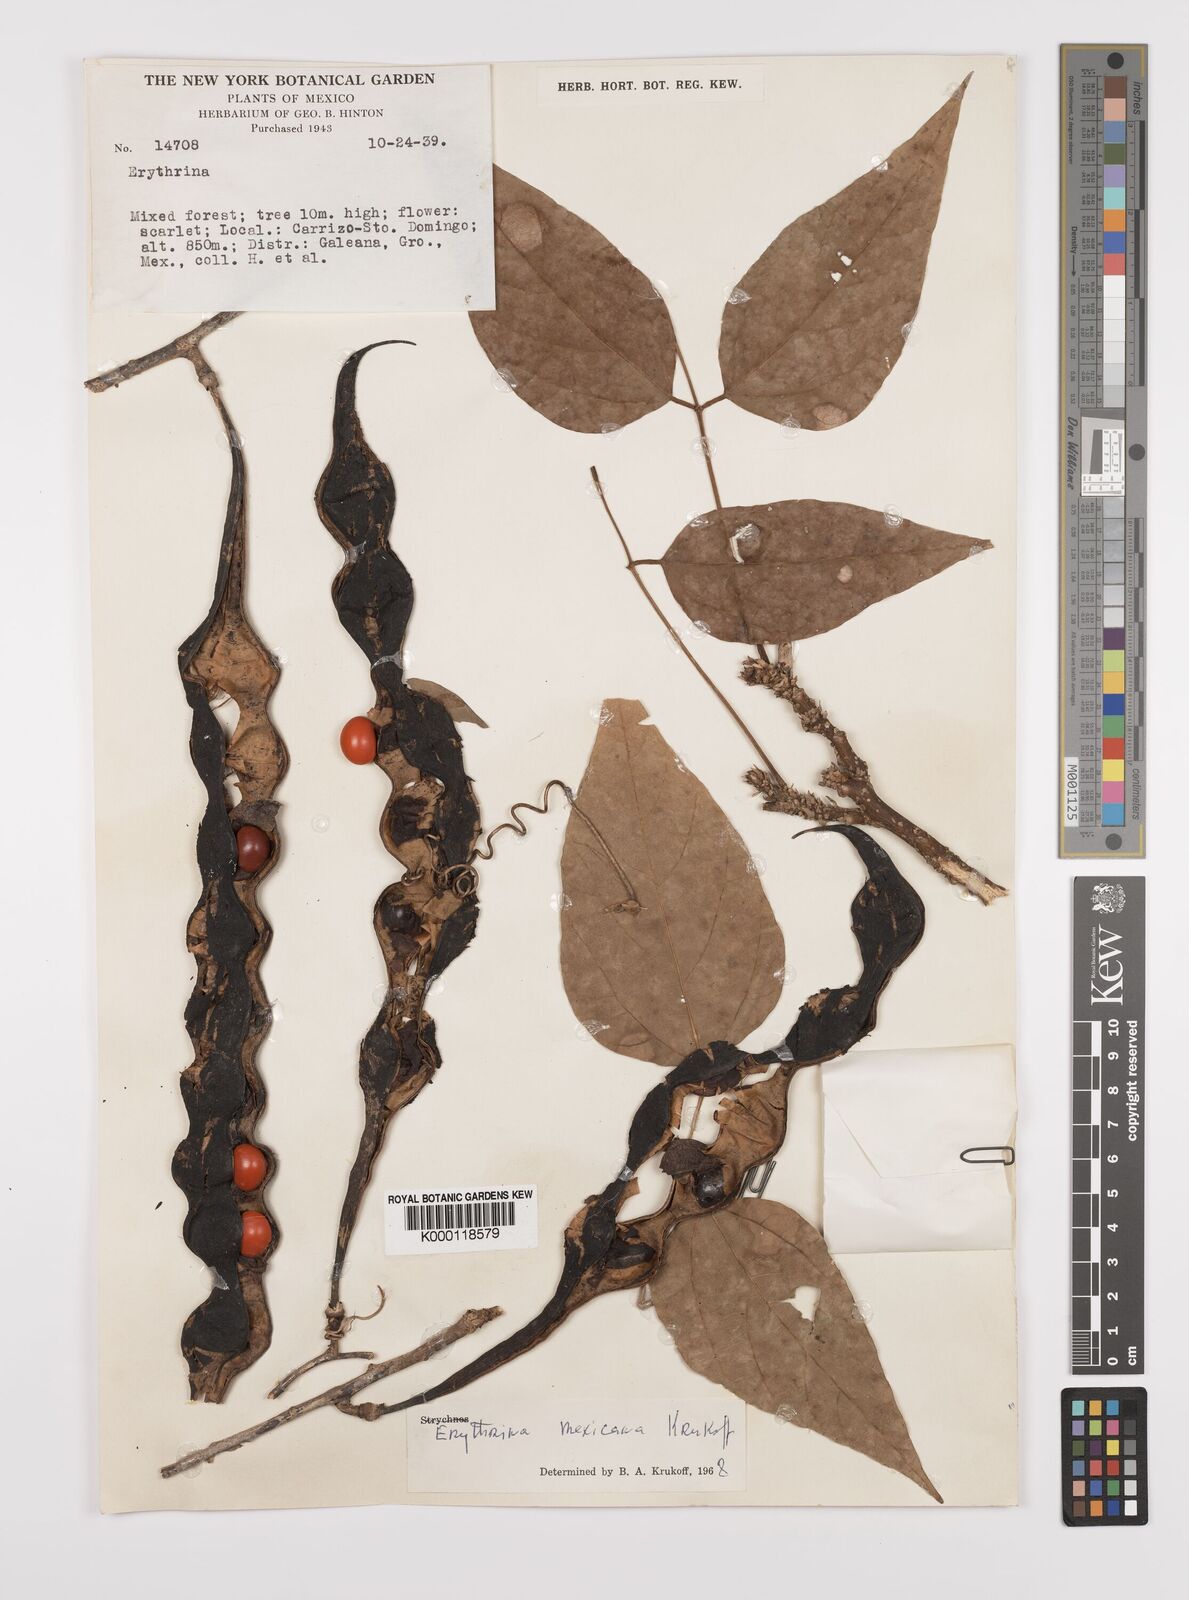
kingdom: Plantae
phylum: Tracheophyta
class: Magnoliopsida
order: Fabales
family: Fabaceae
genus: Erythrina
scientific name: Erythrina mexicana
